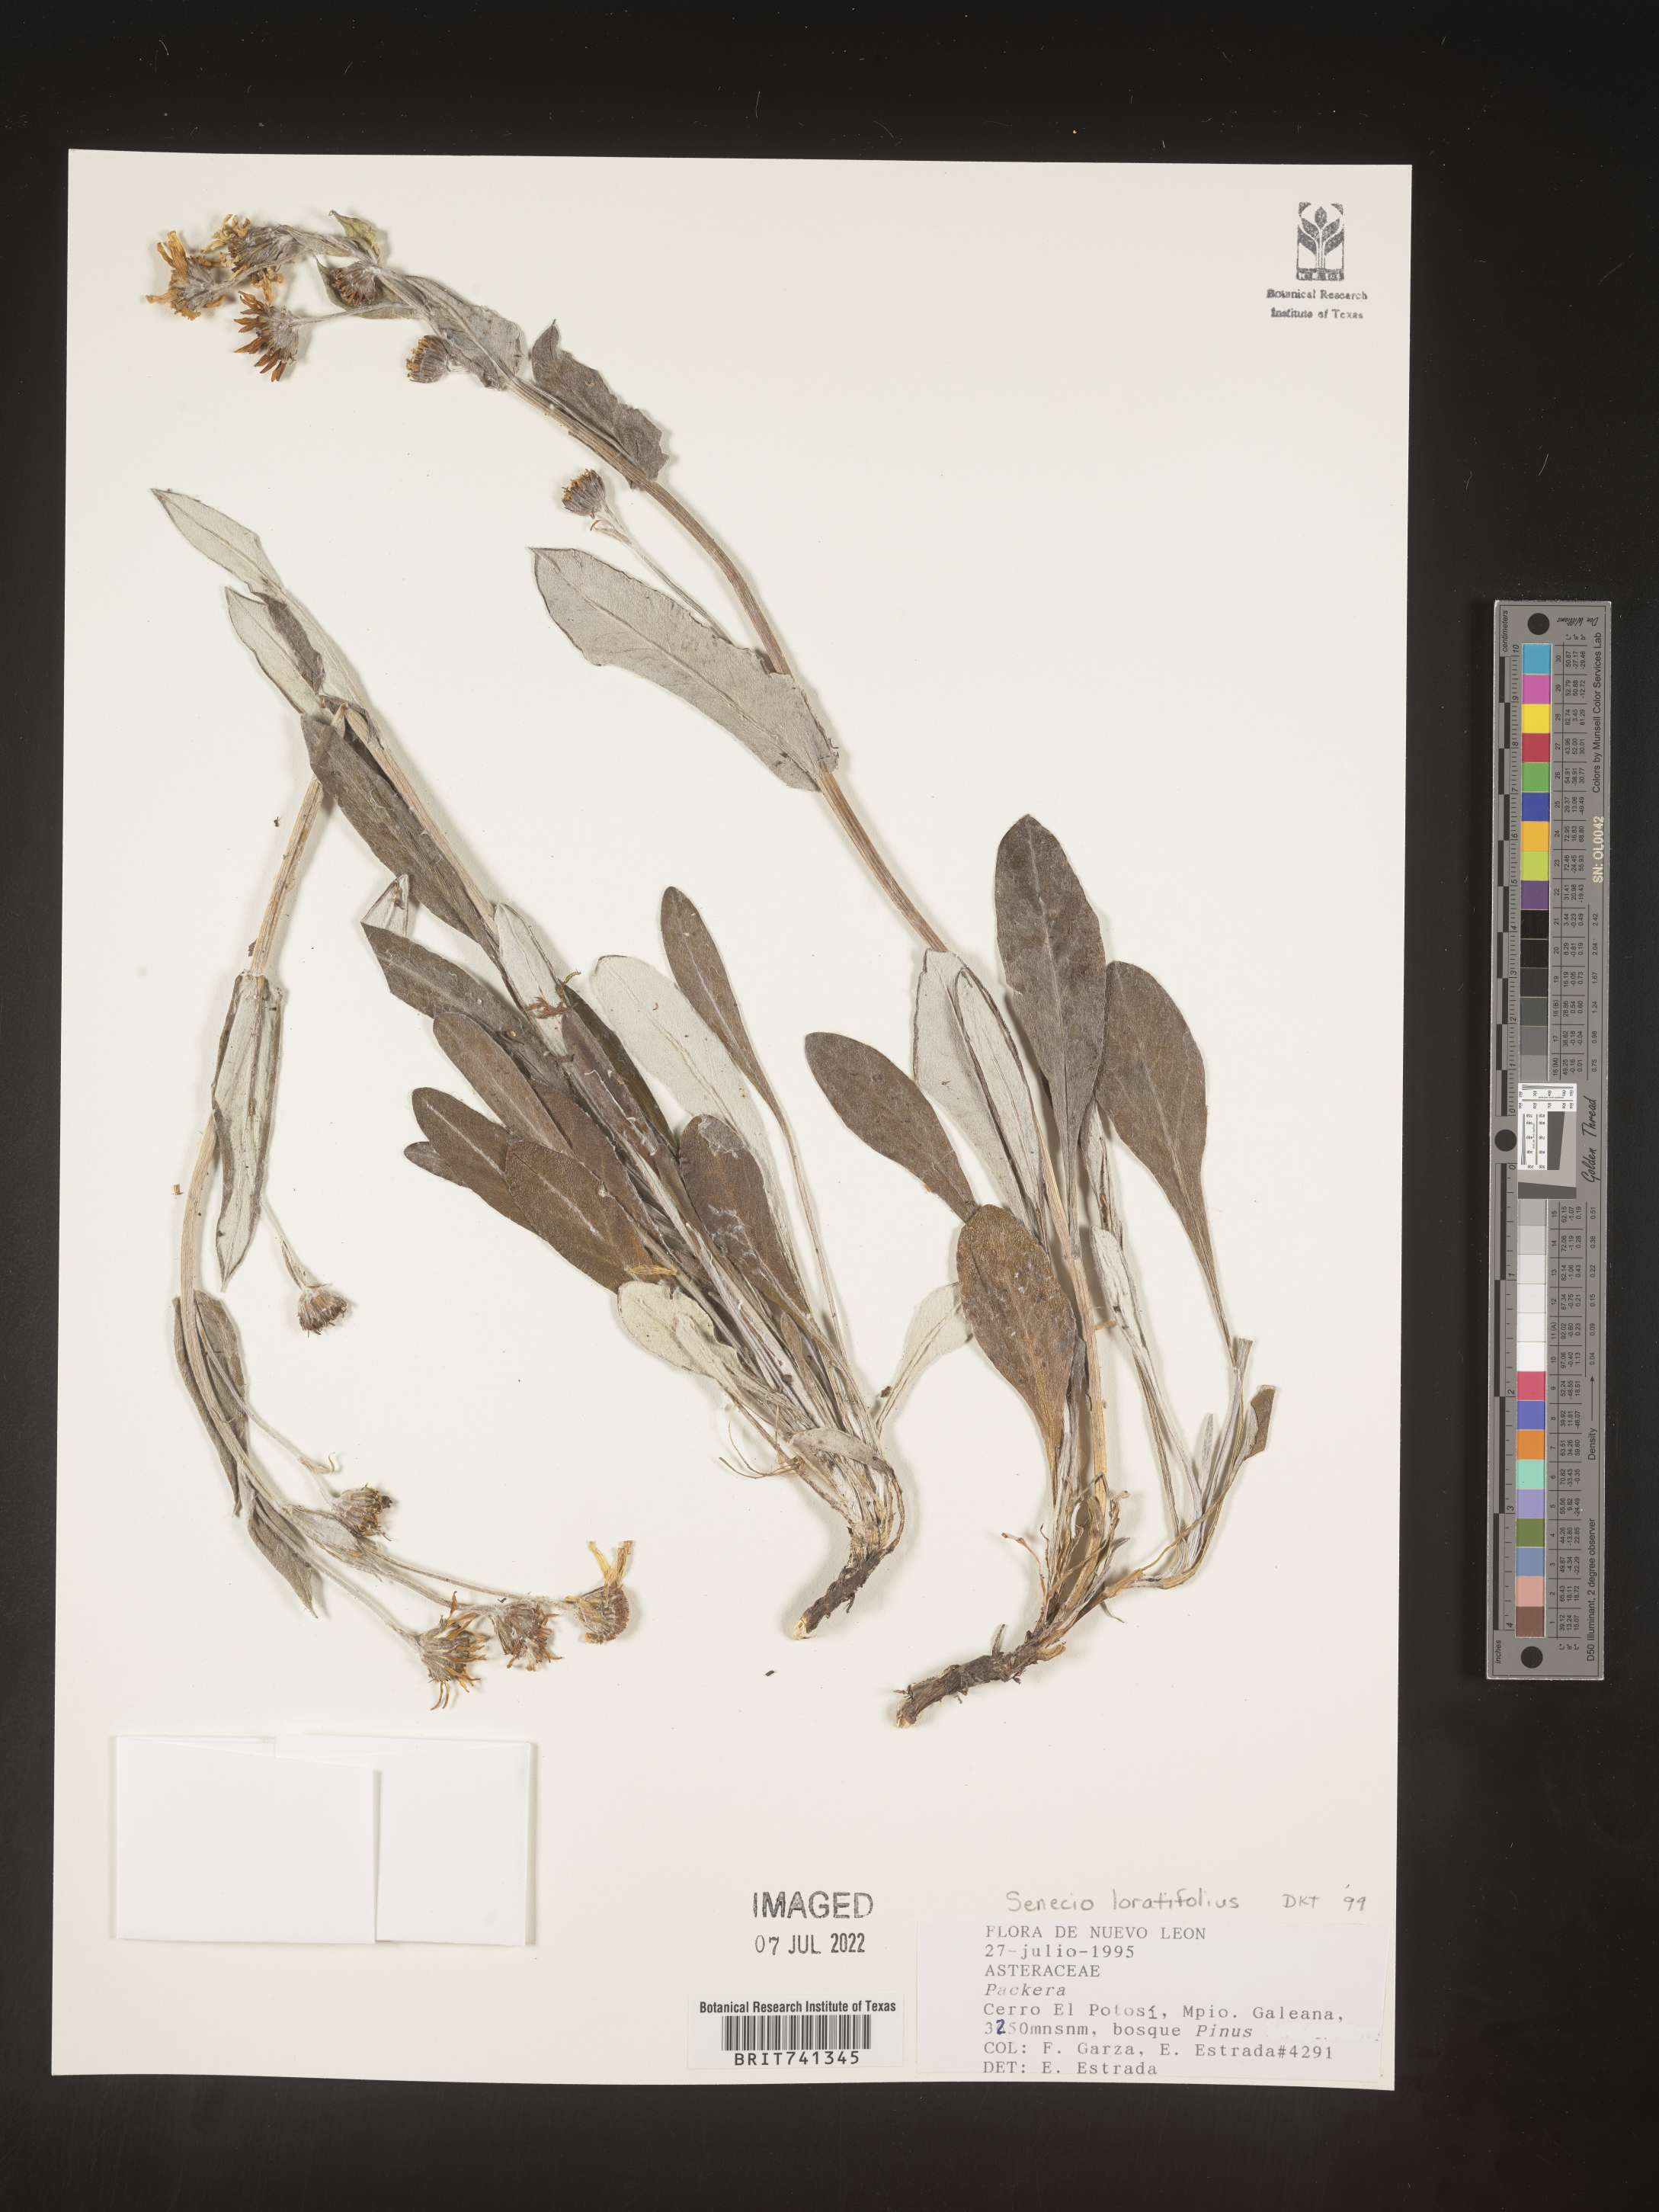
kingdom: Plantae
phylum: Tracheophyta
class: Magnoliopsida
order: Asterales
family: Asteraceae
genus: Packera
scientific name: Packera loratifolia
